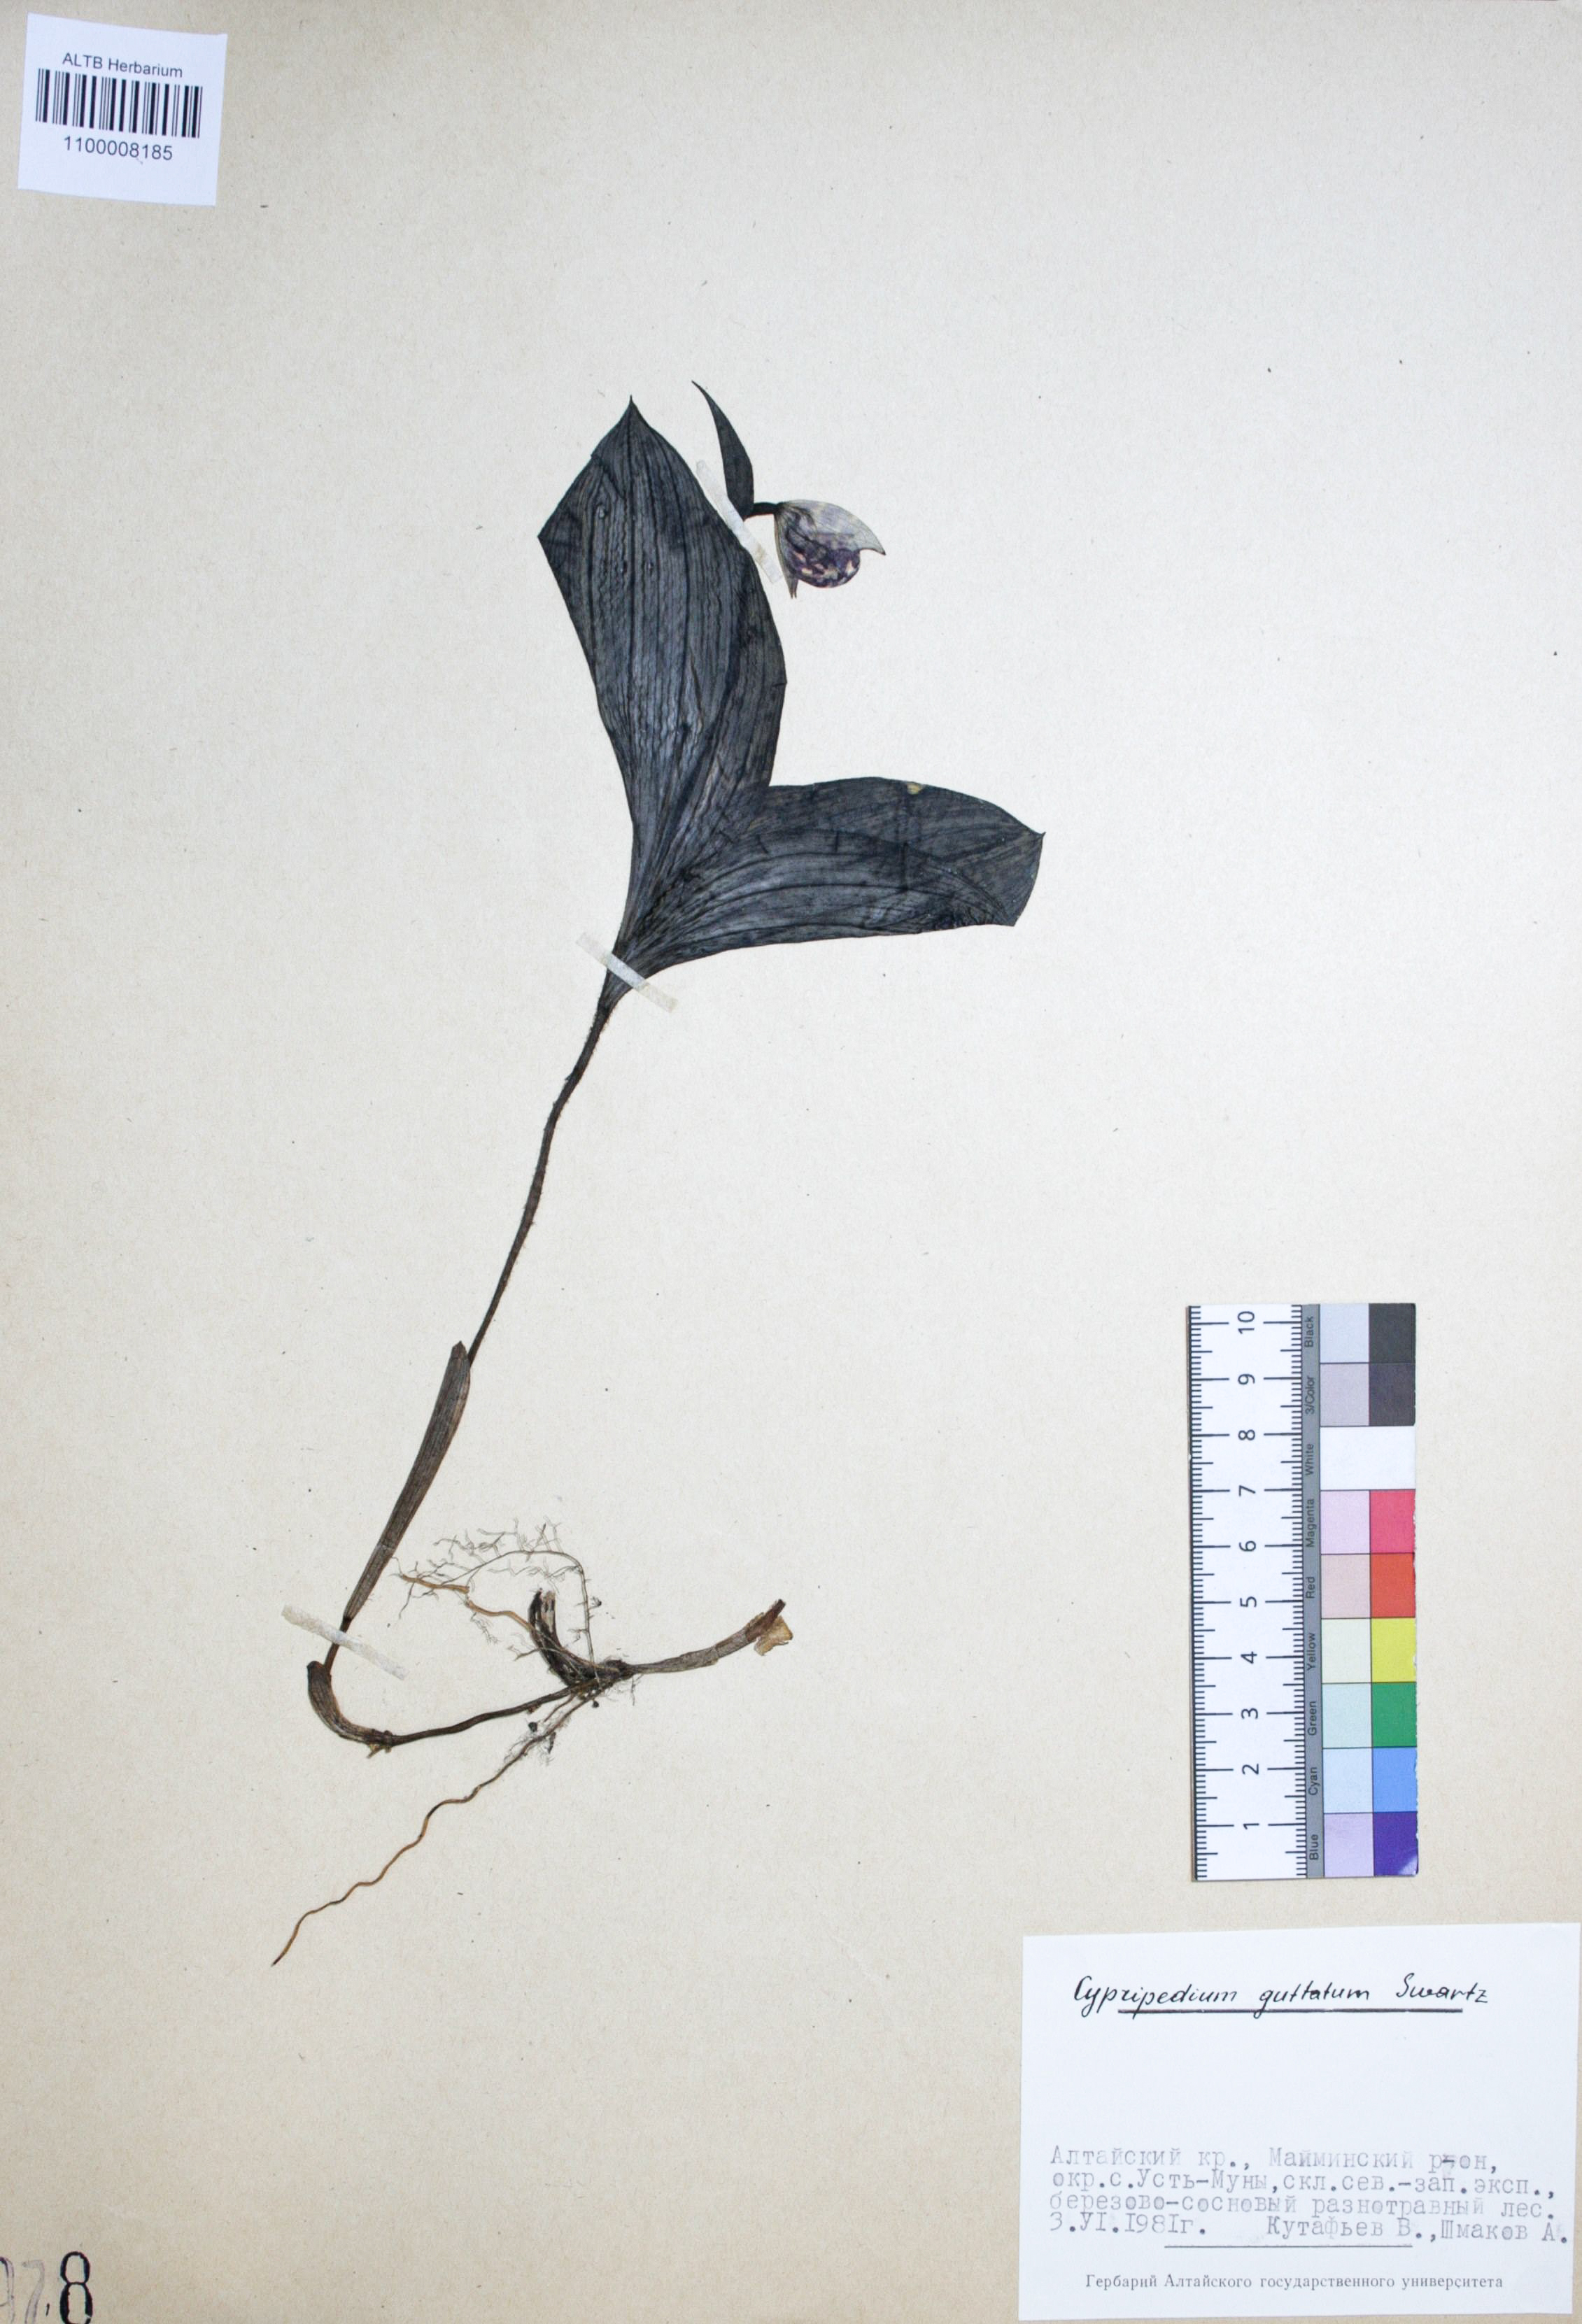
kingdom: Plantae
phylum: Tracheophyta
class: Liliopsida
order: Asparagales
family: Orchidaceae
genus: Cypripedium
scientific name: Cypripedium guttatum
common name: Pink lady slipper
